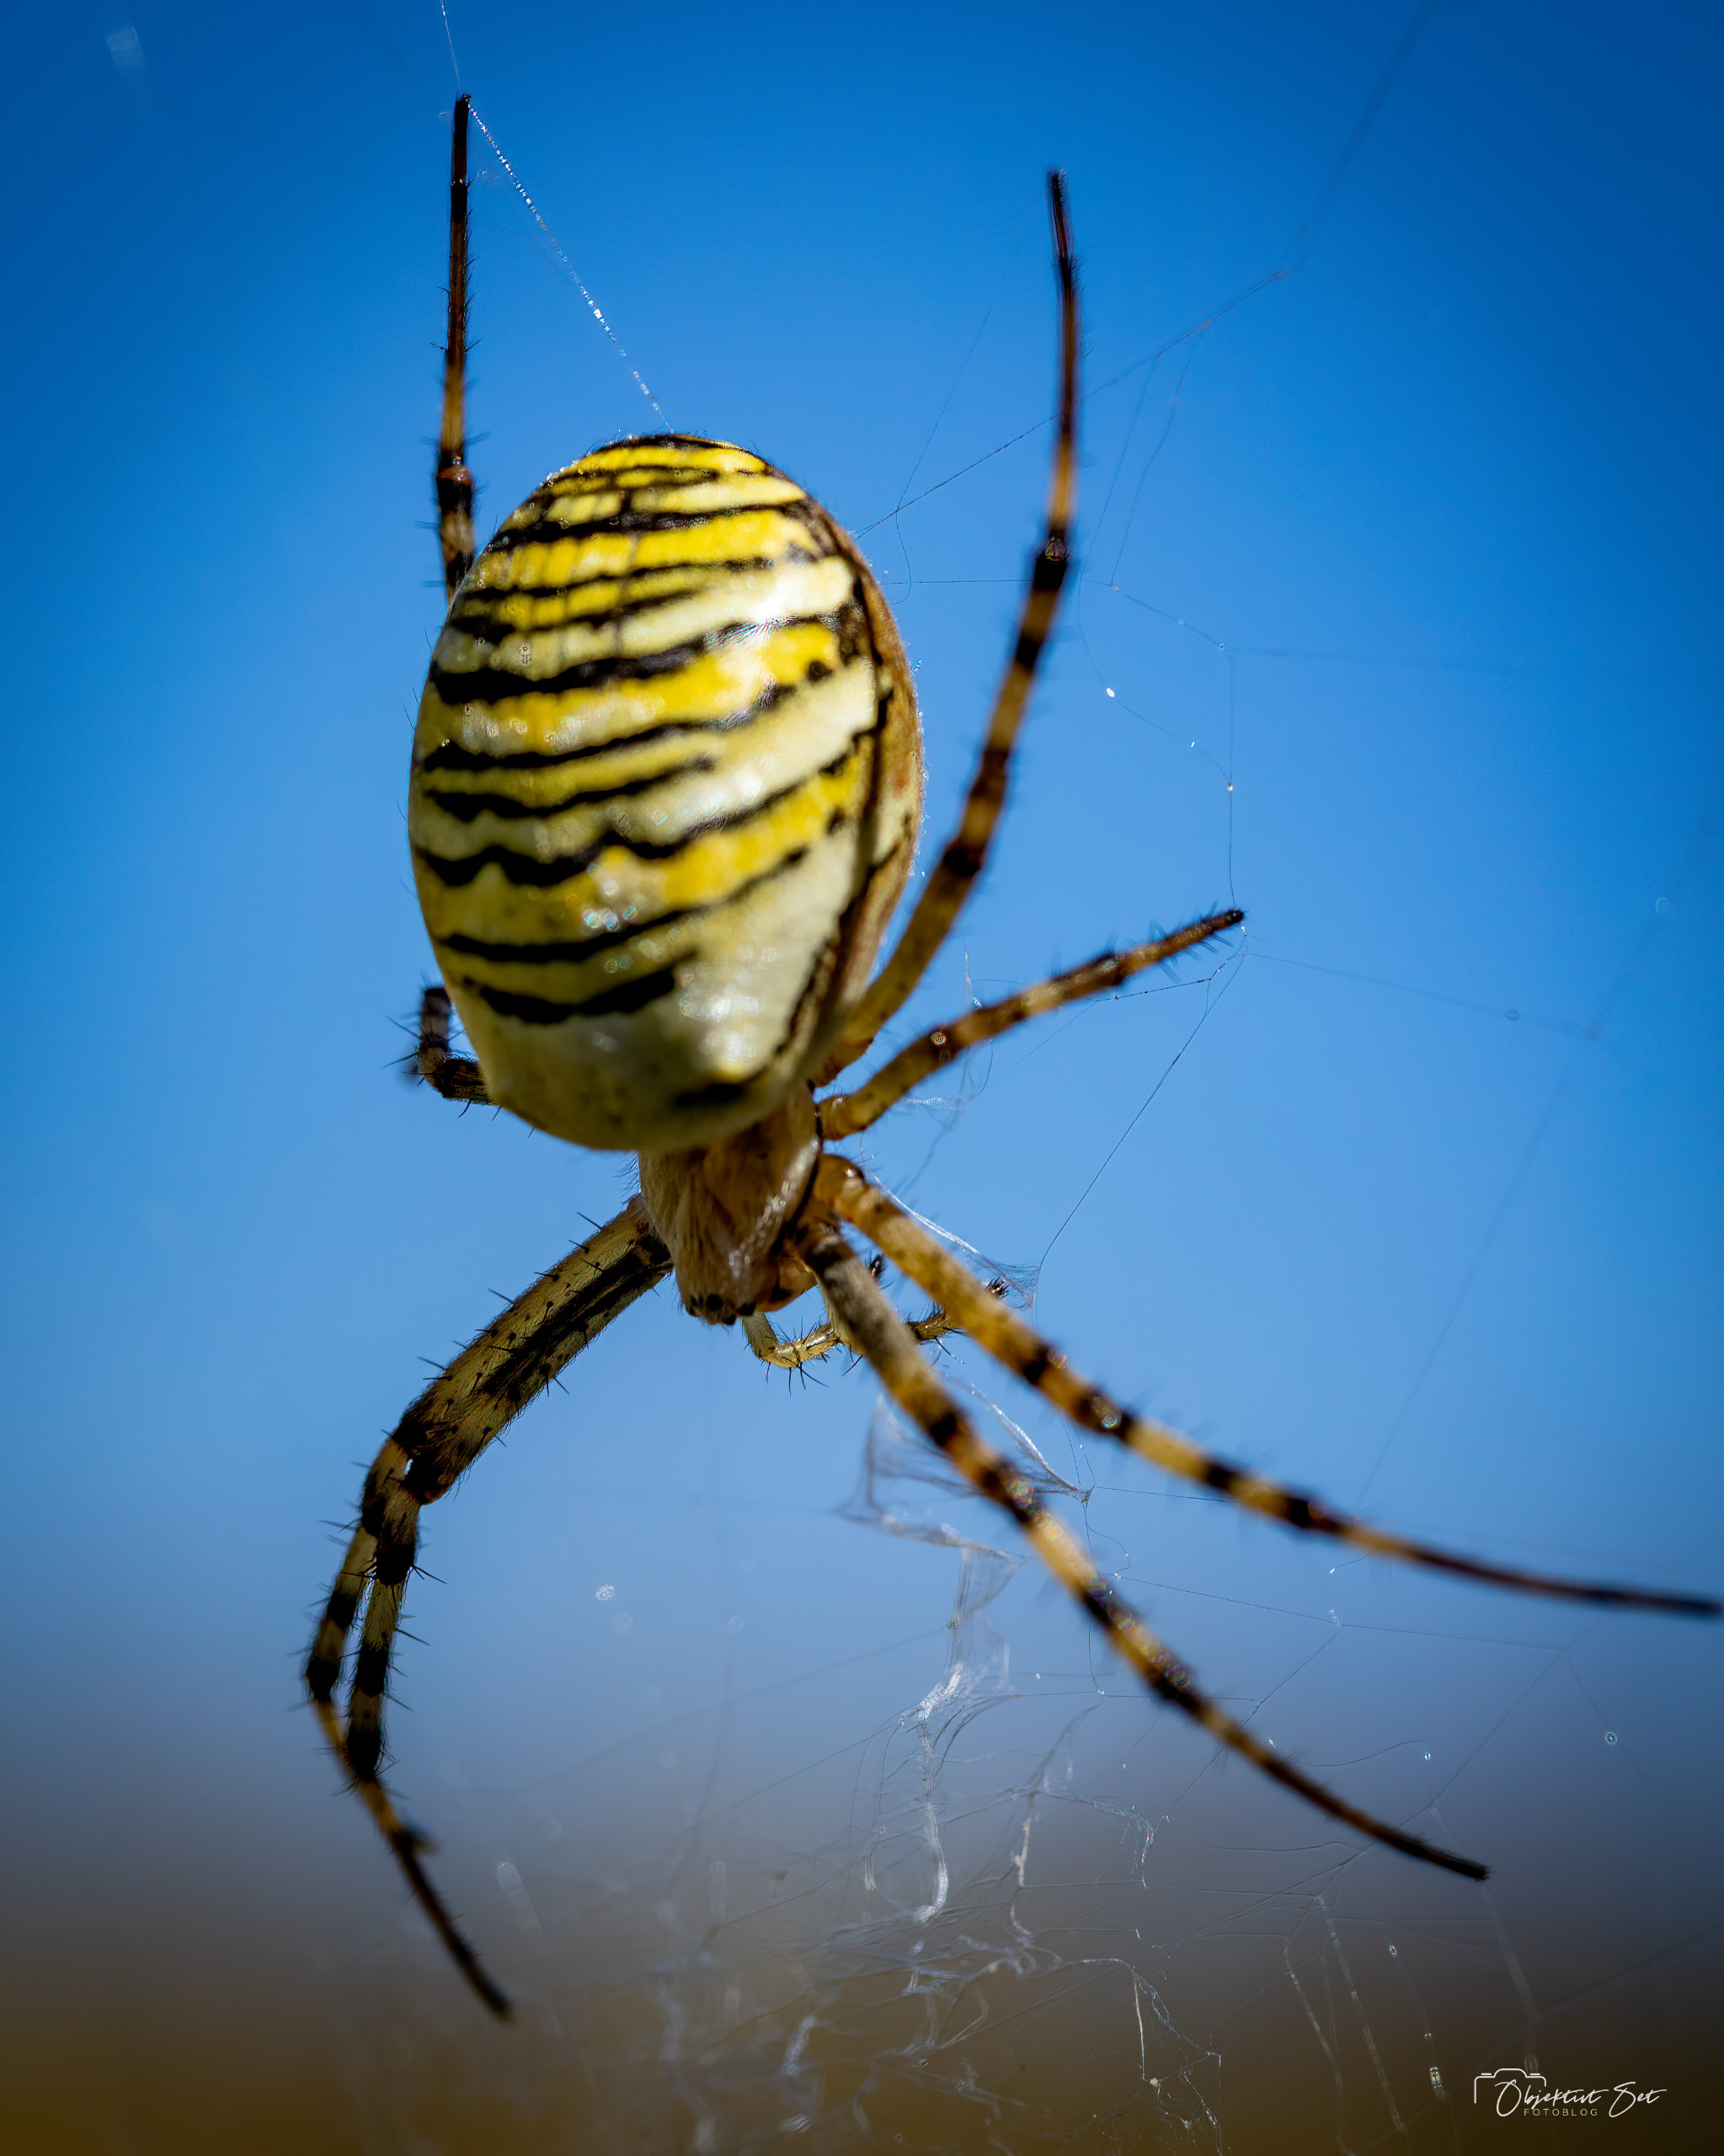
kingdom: Animalia
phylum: Arthropoda
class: Arachnida
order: Araneae
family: Araneidae
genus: Argiope
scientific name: Argiope bruennichi
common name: Hvepseedderkop
